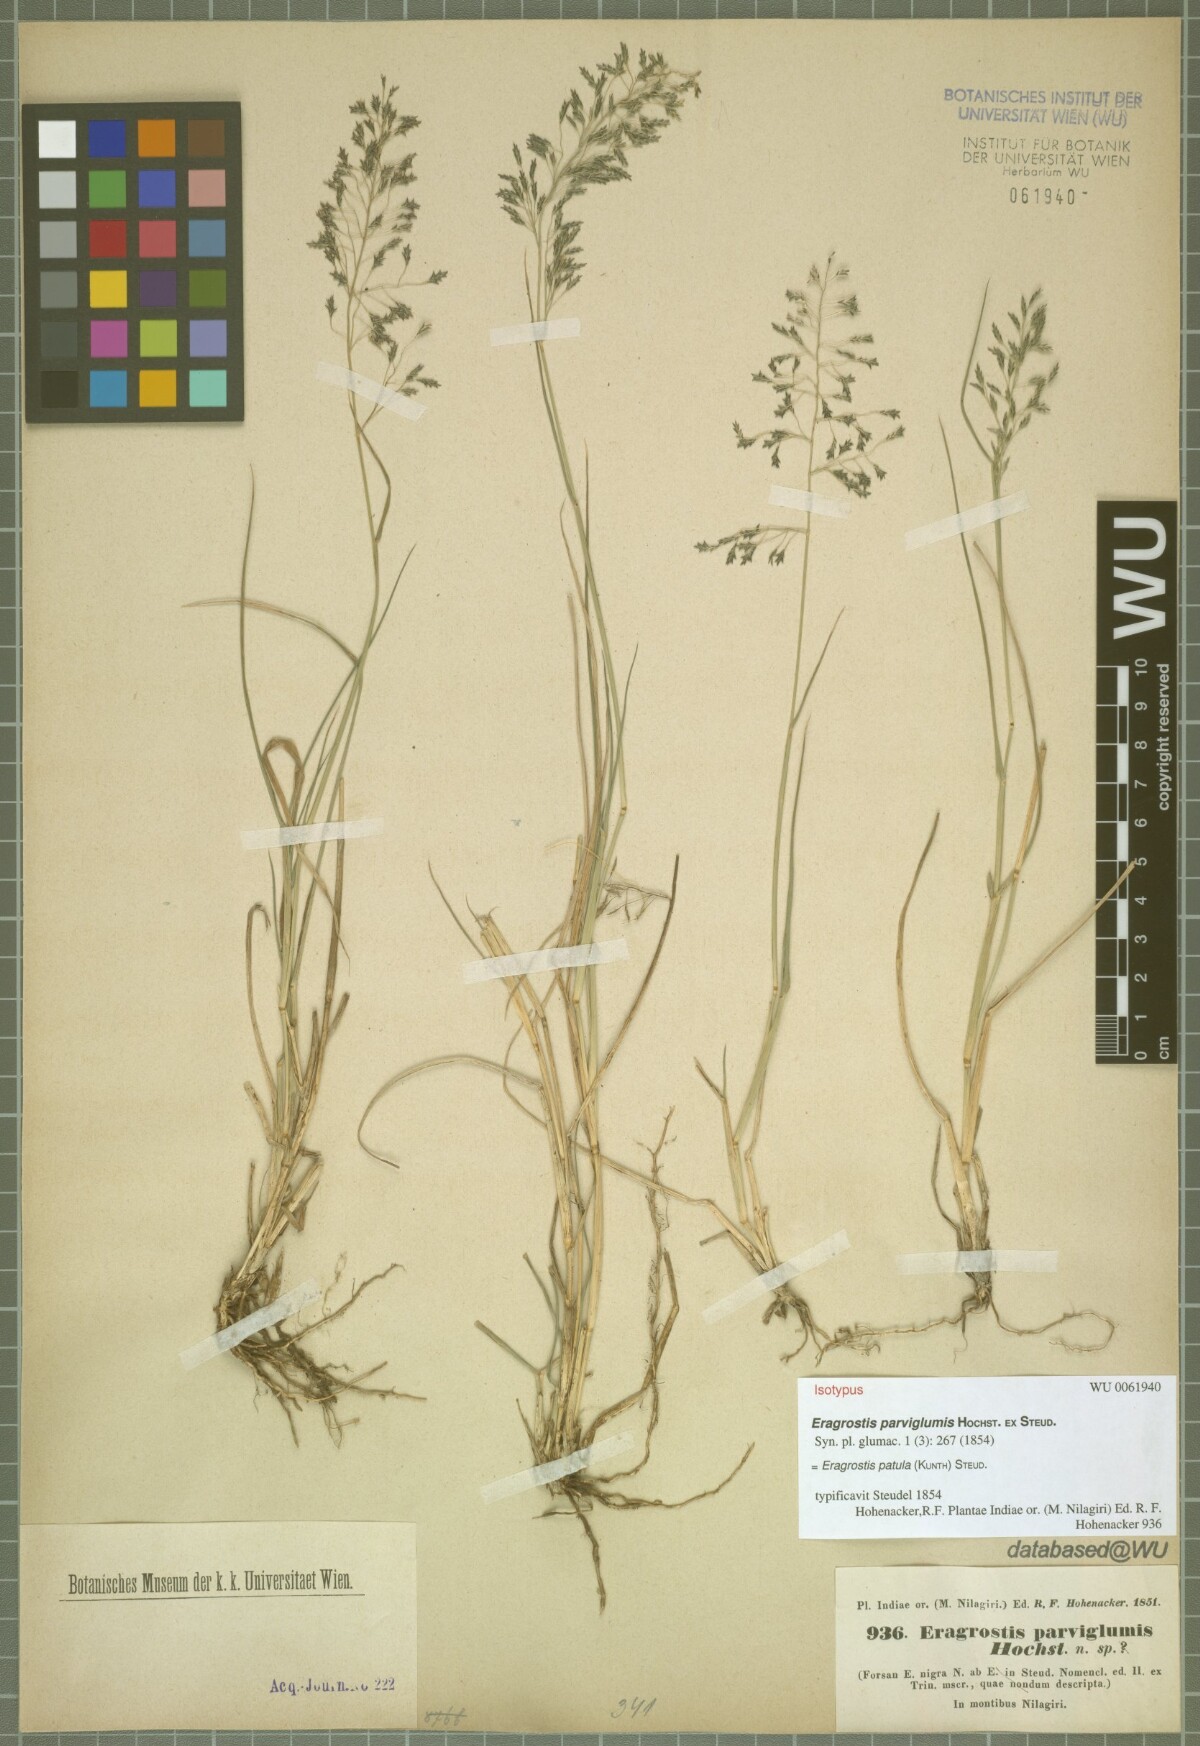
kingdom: Plantae
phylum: Tracheophyta
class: Liliopsida
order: Poales
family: Poaceae
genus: Eragrostis
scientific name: Eragrostis tenuifolia
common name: Elastic grass
